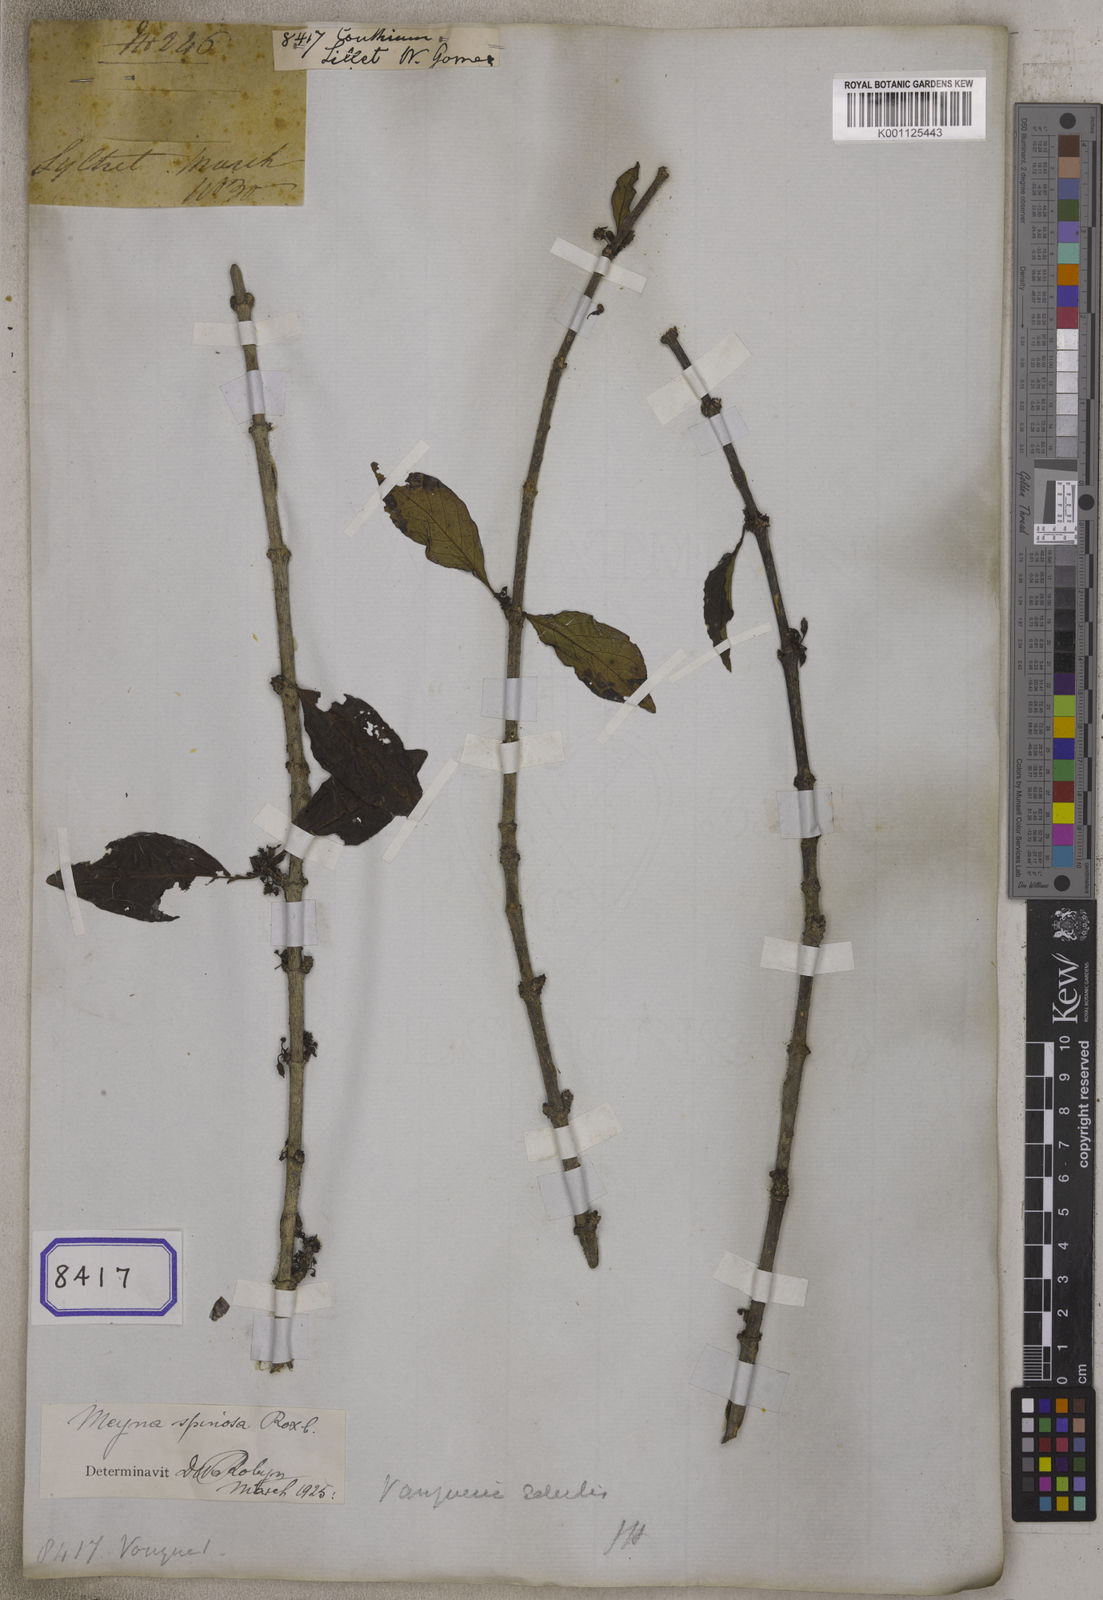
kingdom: Plantae
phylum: Tracheophyta
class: Magnoliopsida
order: Gentianales
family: Rubiaceae
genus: Canthium
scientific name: Canthium
